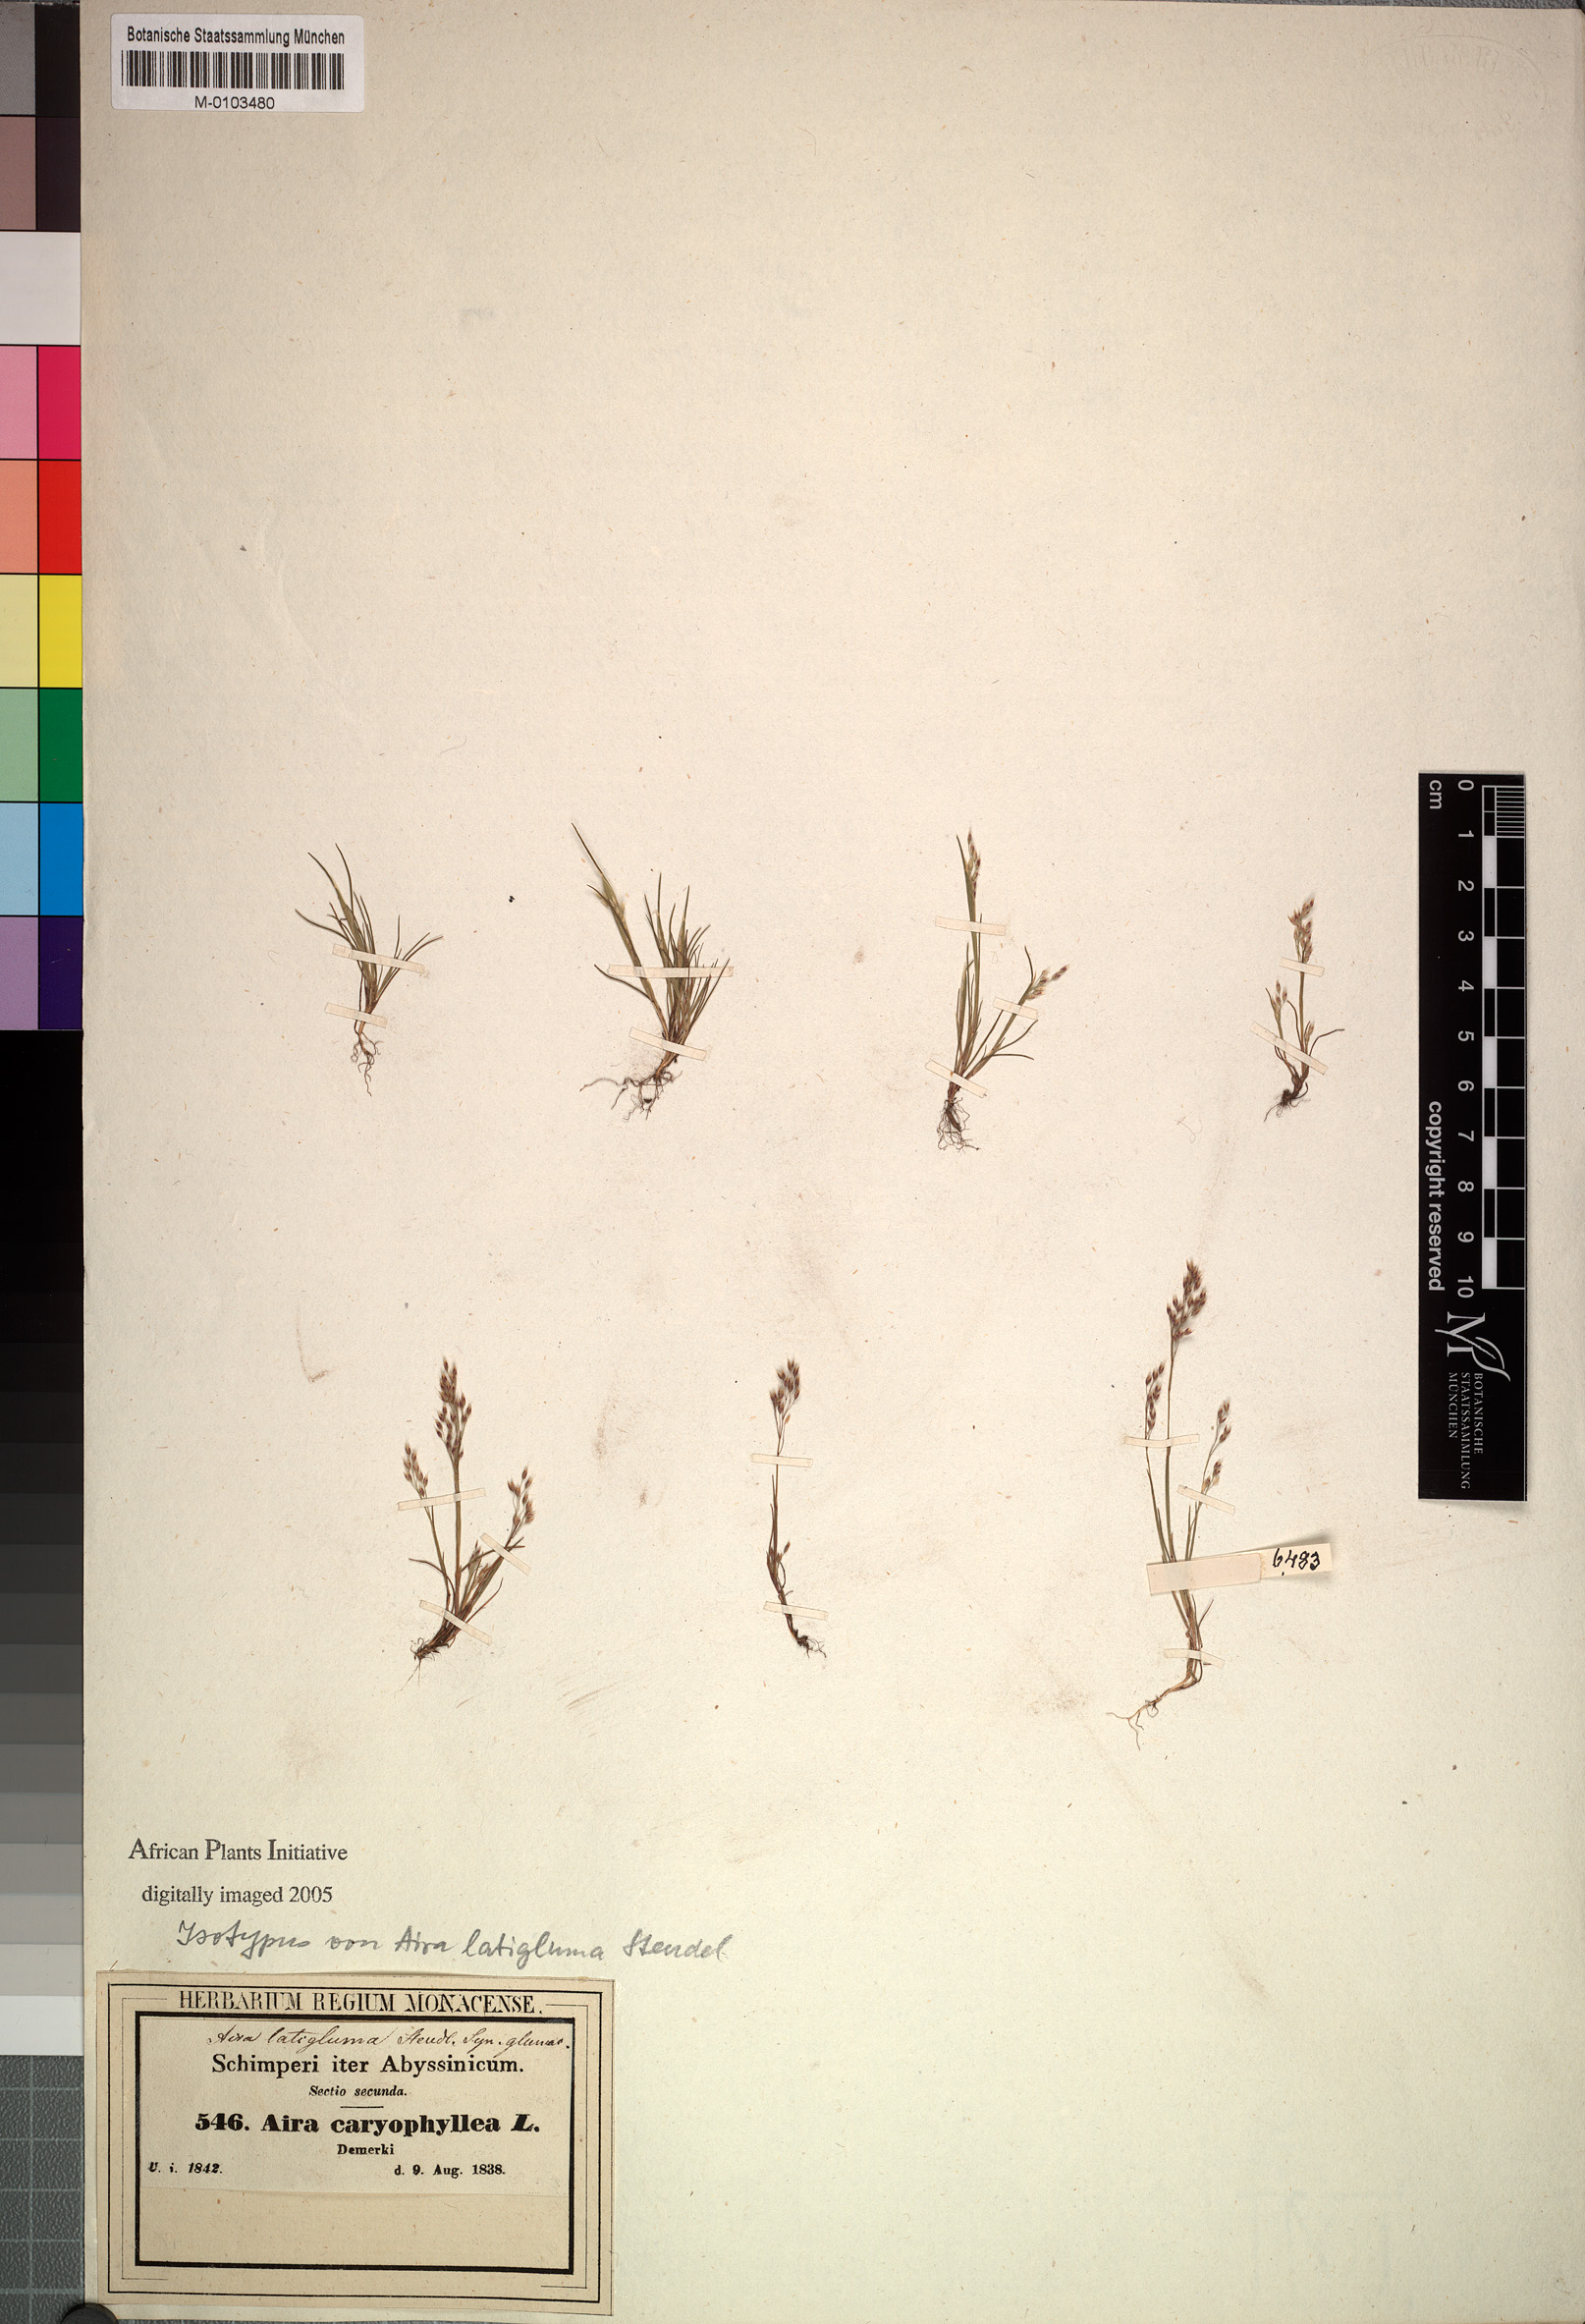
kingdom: Plantae
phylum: Tracheophyta
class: Liliopsida
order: Poales
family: Poaceae
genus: Aira
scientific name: Aira caryophyllea
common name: Silver hairgrass
